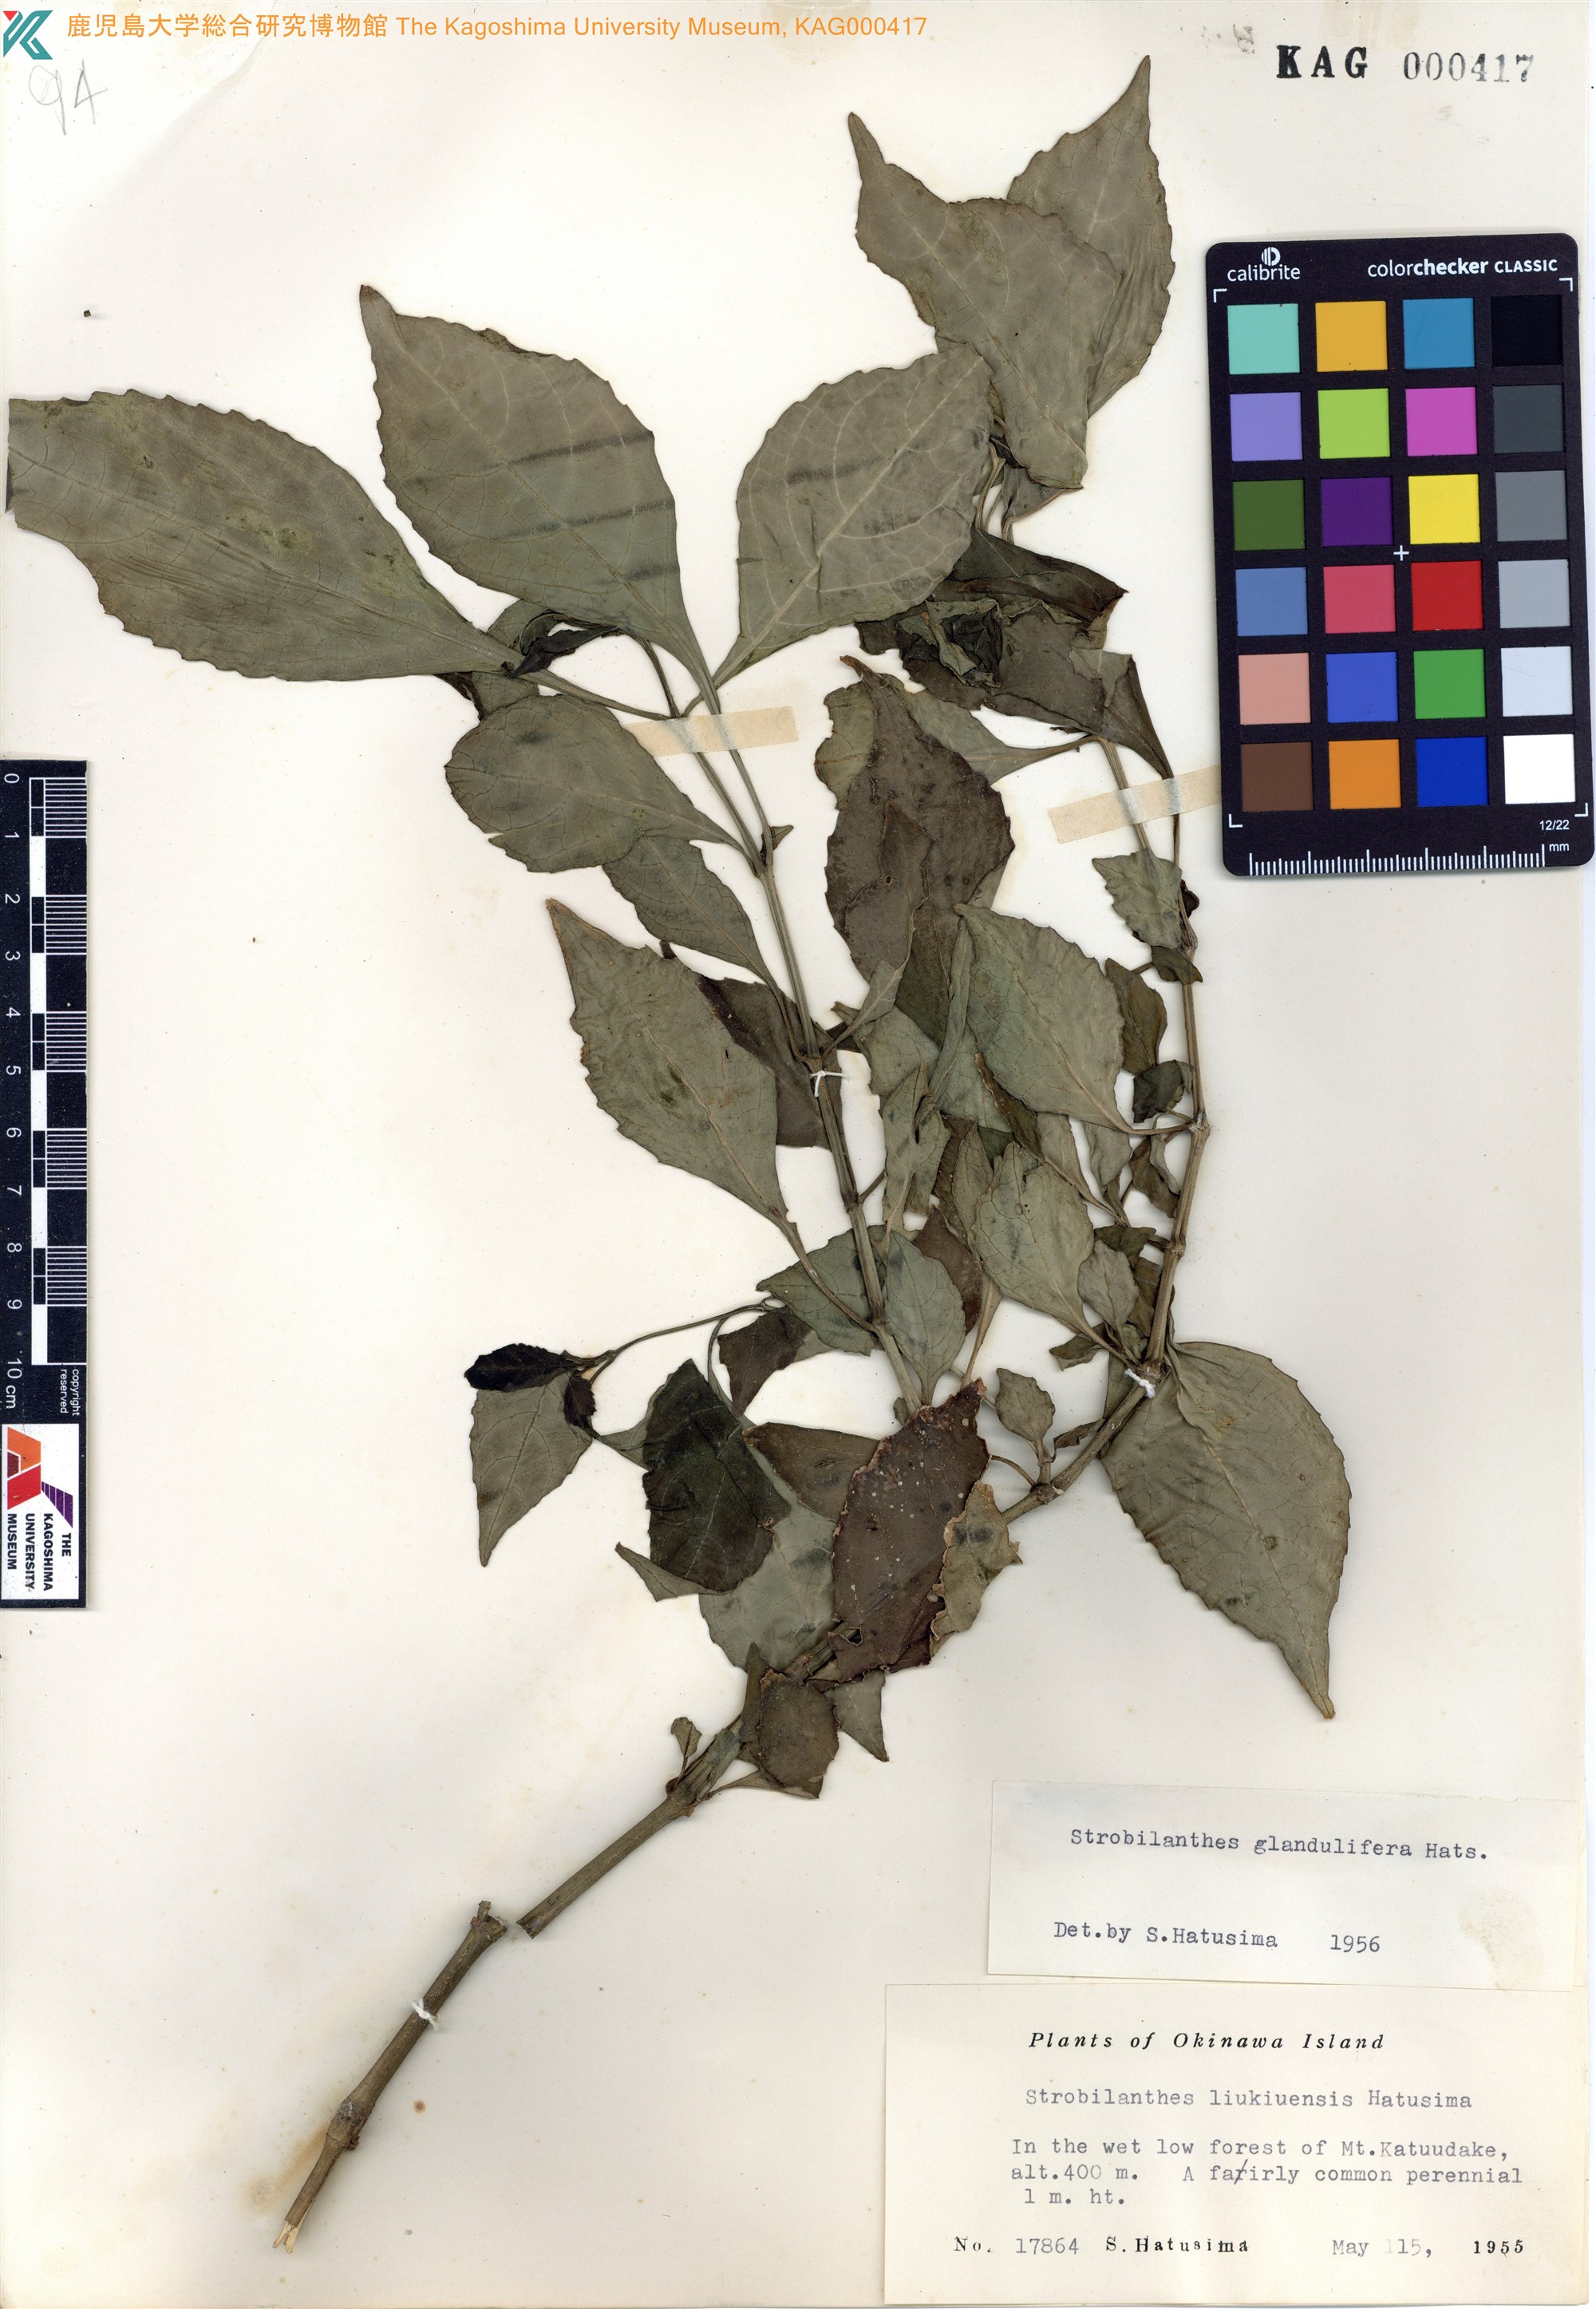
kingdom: Plantae
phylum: Tracheophyta
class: Magnoliopsida
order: Lamiales
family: Acanthaceae
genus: Strobilanthes
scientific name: Strobilanthes flexicaulis
